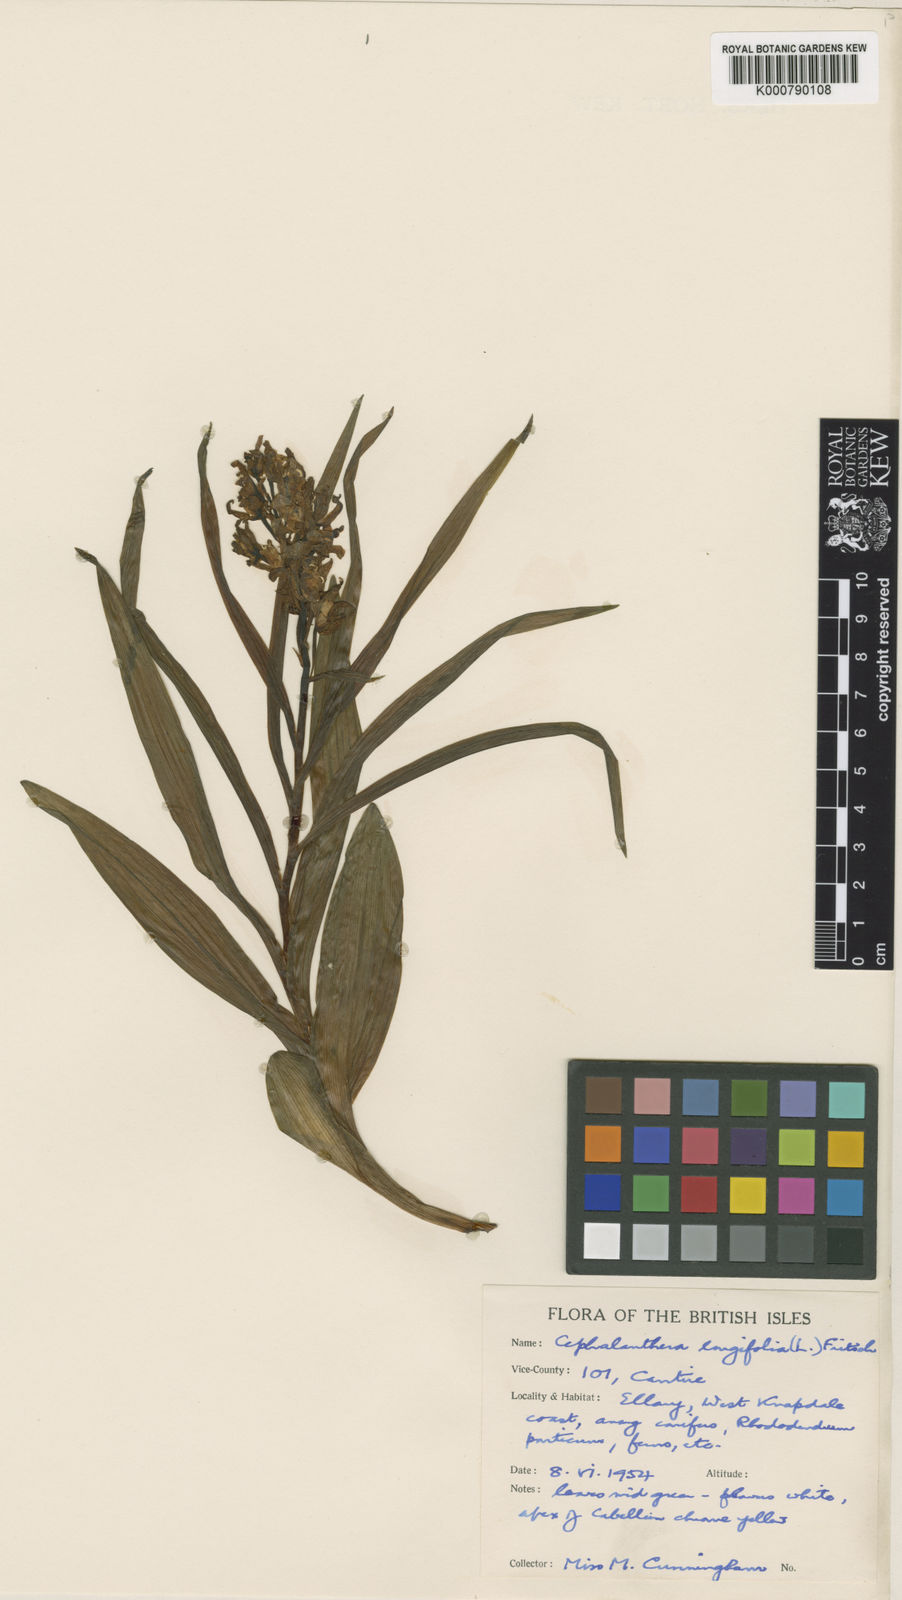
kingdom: Plantae
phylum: Tracheophyta
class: Liliopsida
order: Asparagales
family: Orchidaceae
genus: Cephalanthera
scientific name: Cephalanthera longifolia
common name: Narrow-leaved helleborine
